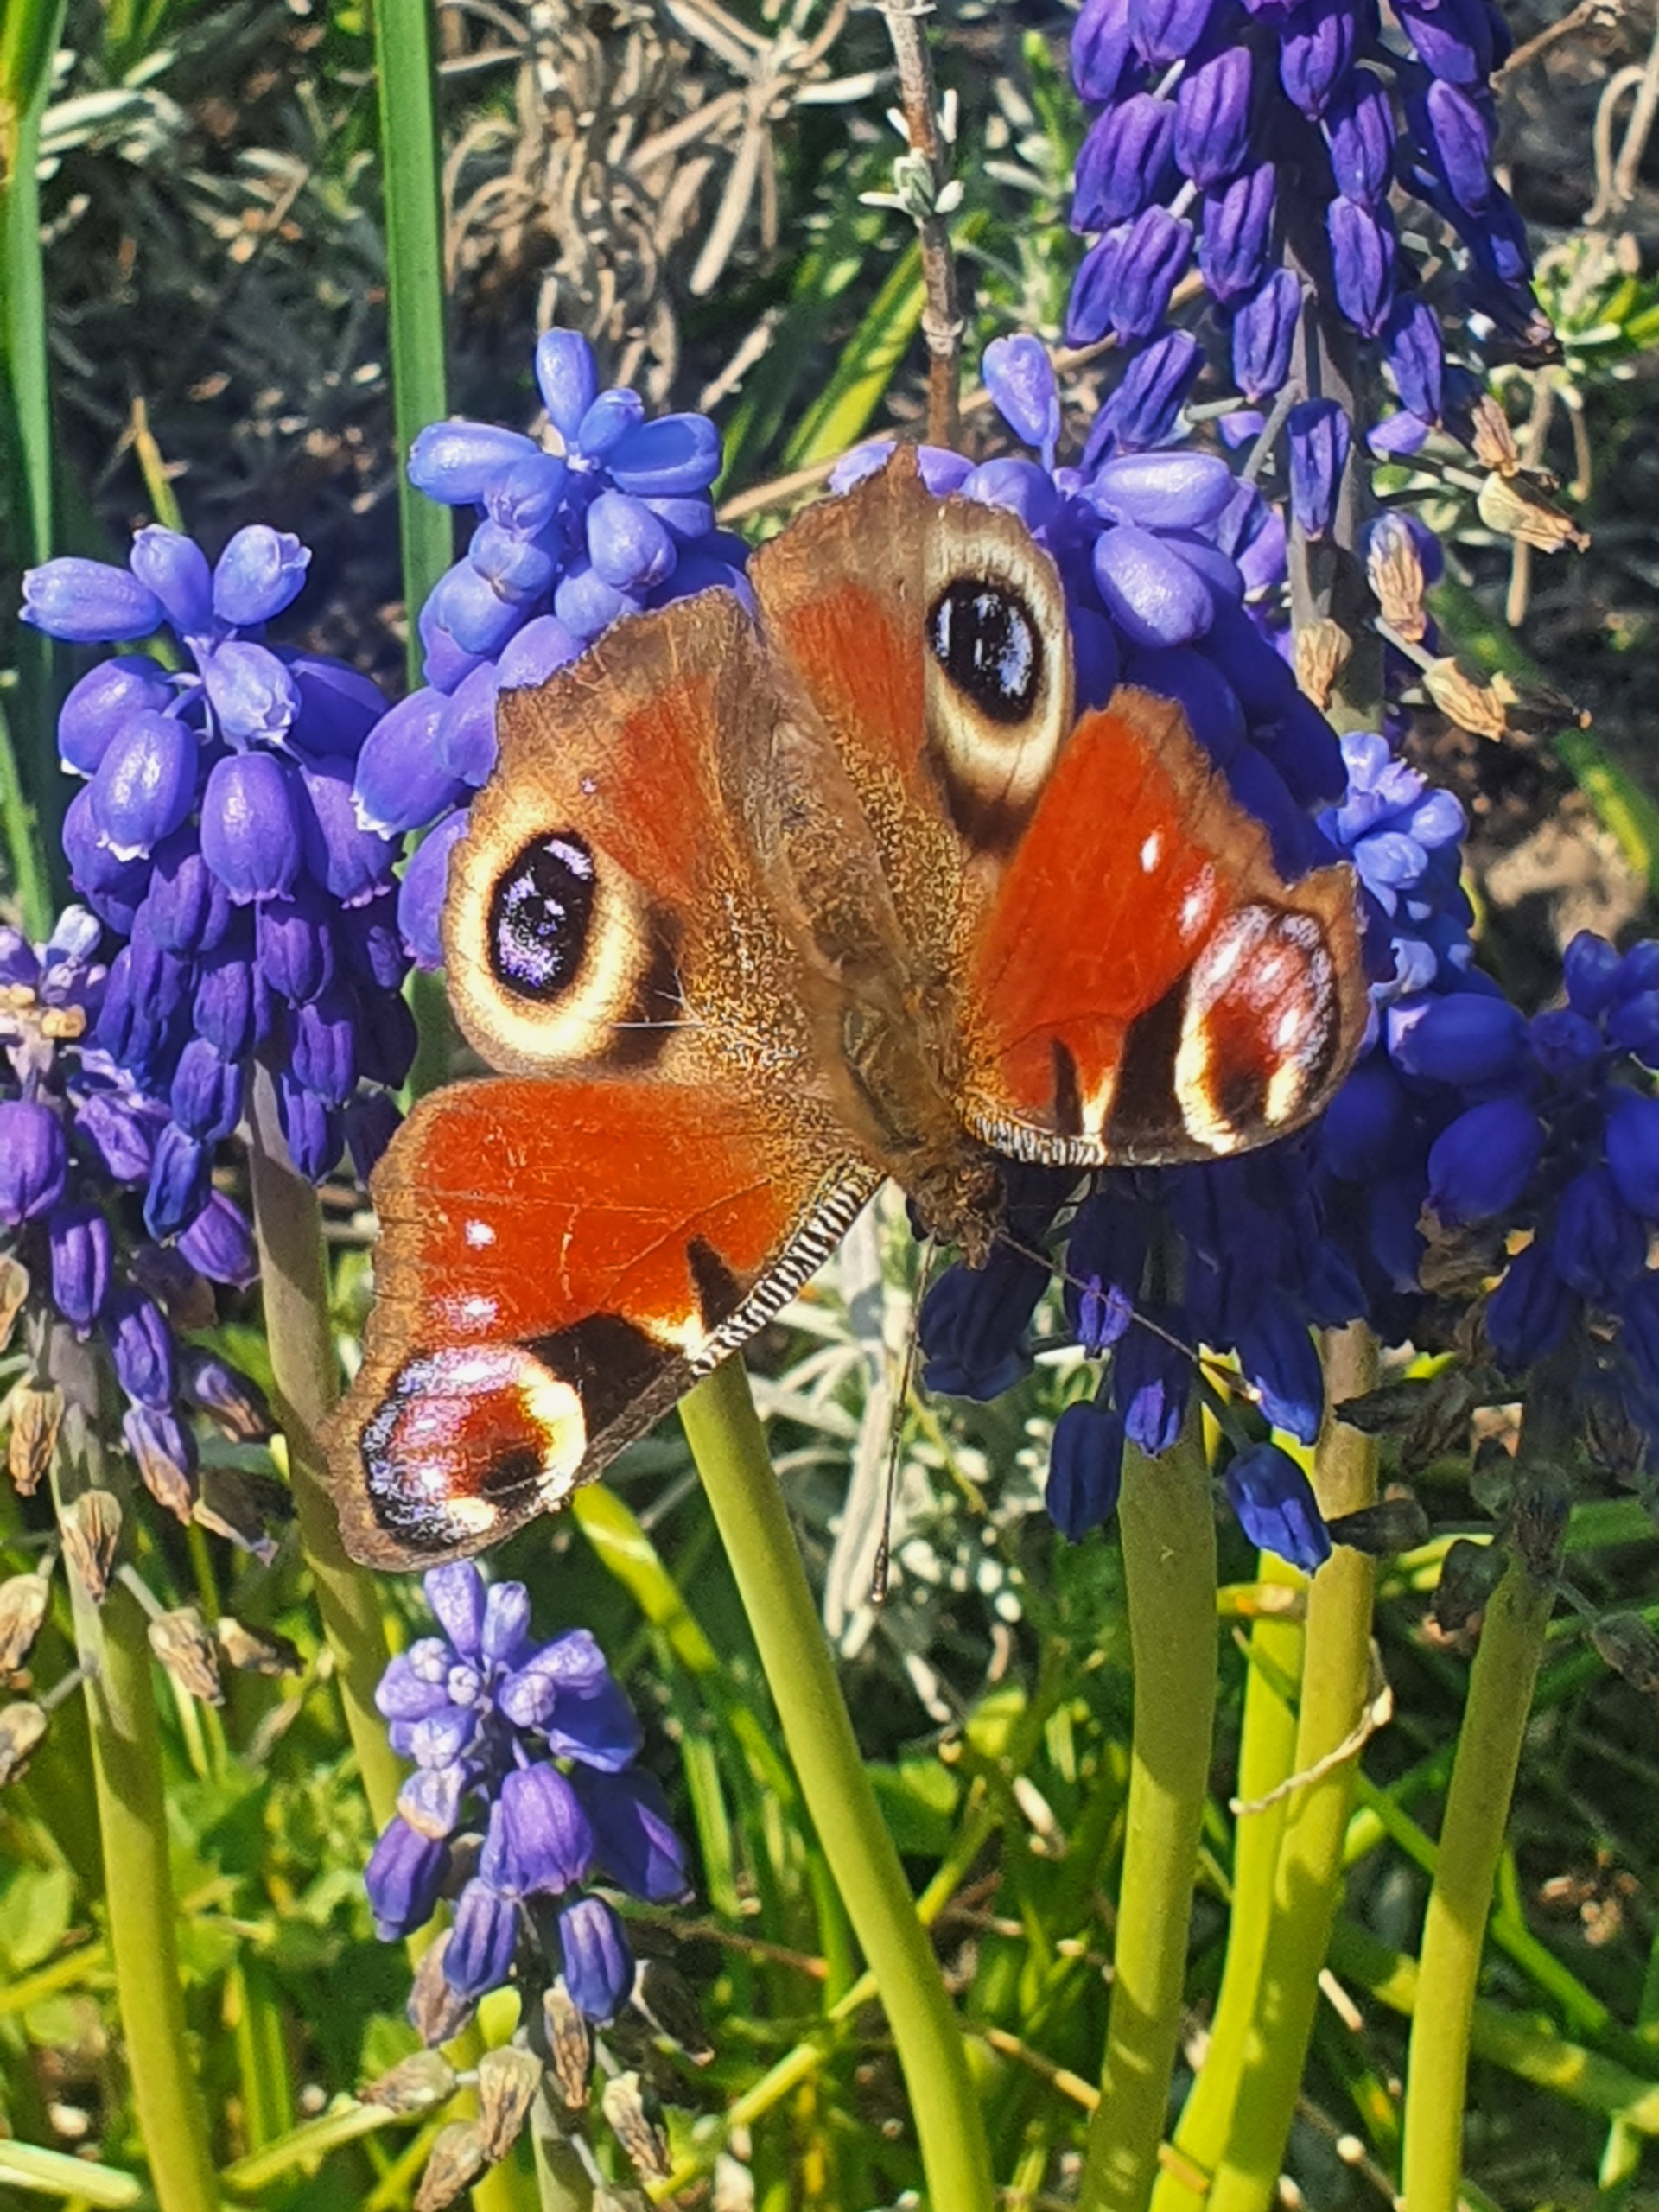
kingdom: Animalia
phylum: Arthropoda
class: Insecta
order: Lepidoptera
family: Nymphalidae
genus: Aglais
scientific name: Aglais io
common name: Dagpåfugleøje
